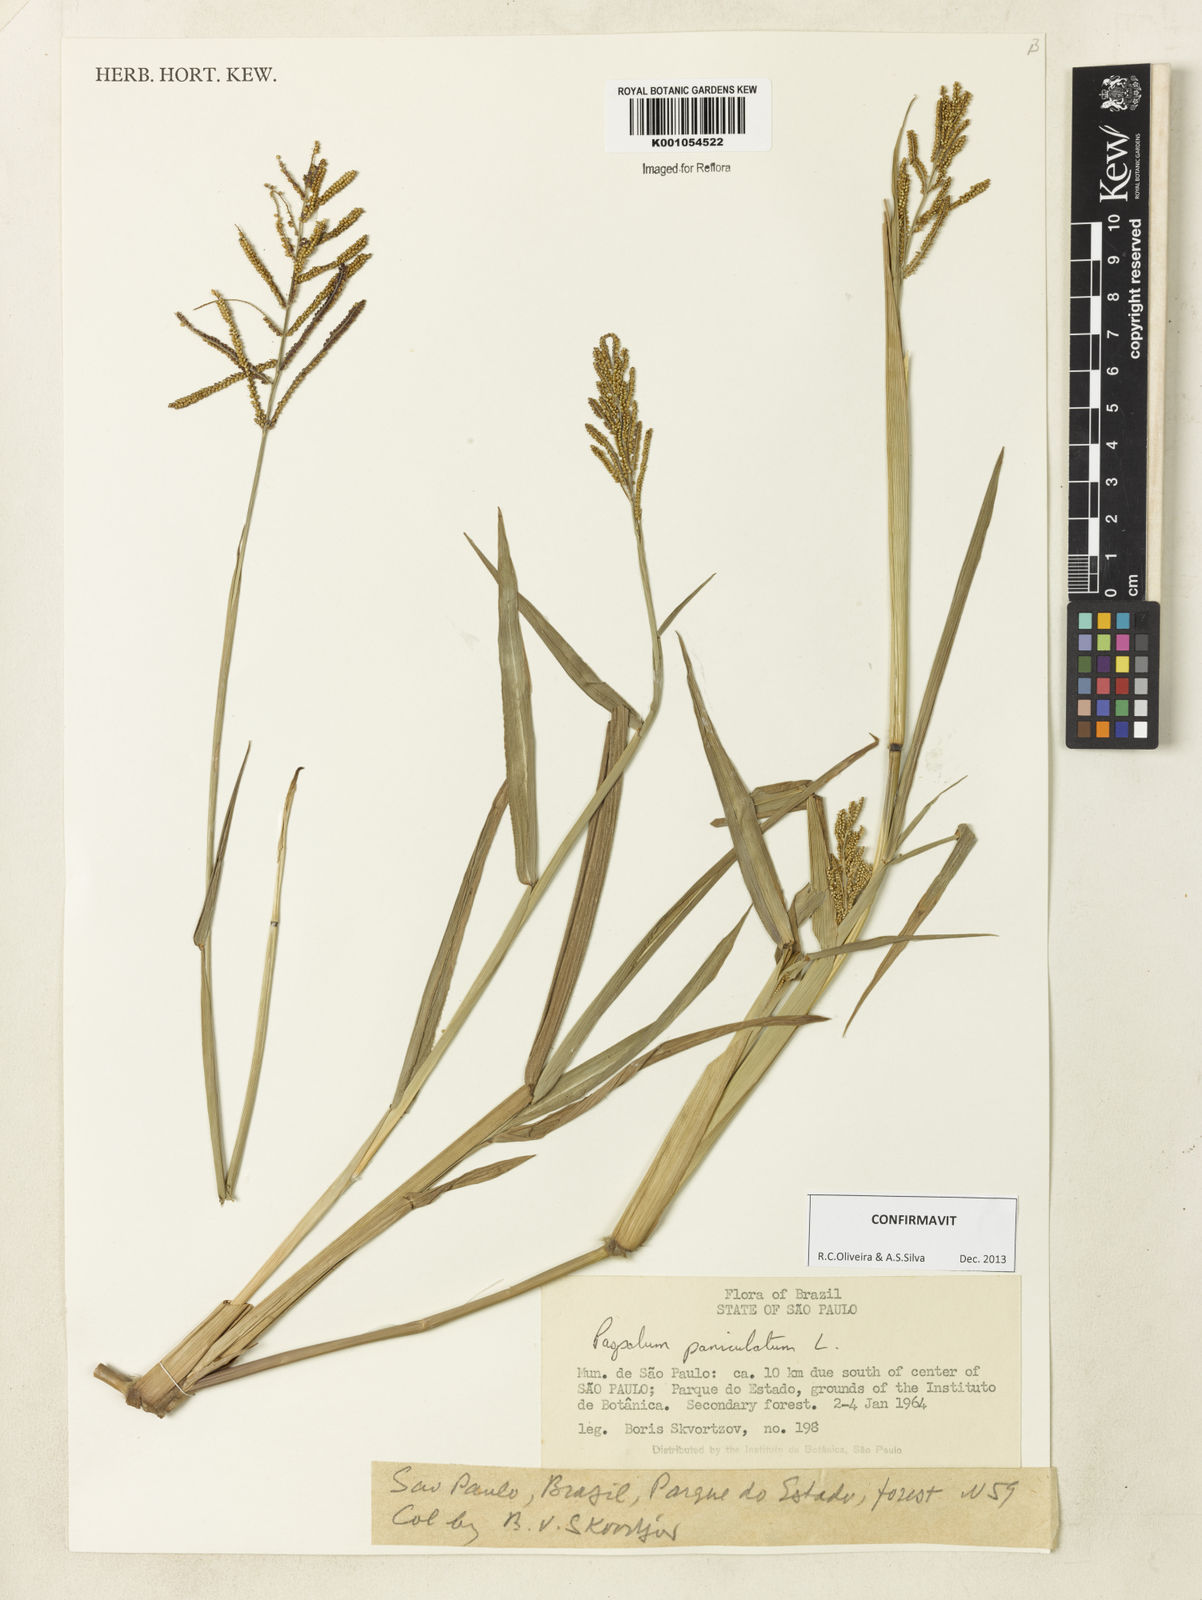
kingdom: Plantae
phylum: Tracheophyta
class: Liliopsida
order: Poales
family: Poaceae
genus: Paspalum
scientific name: Paspalum paniculatum
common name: Arrocillo
